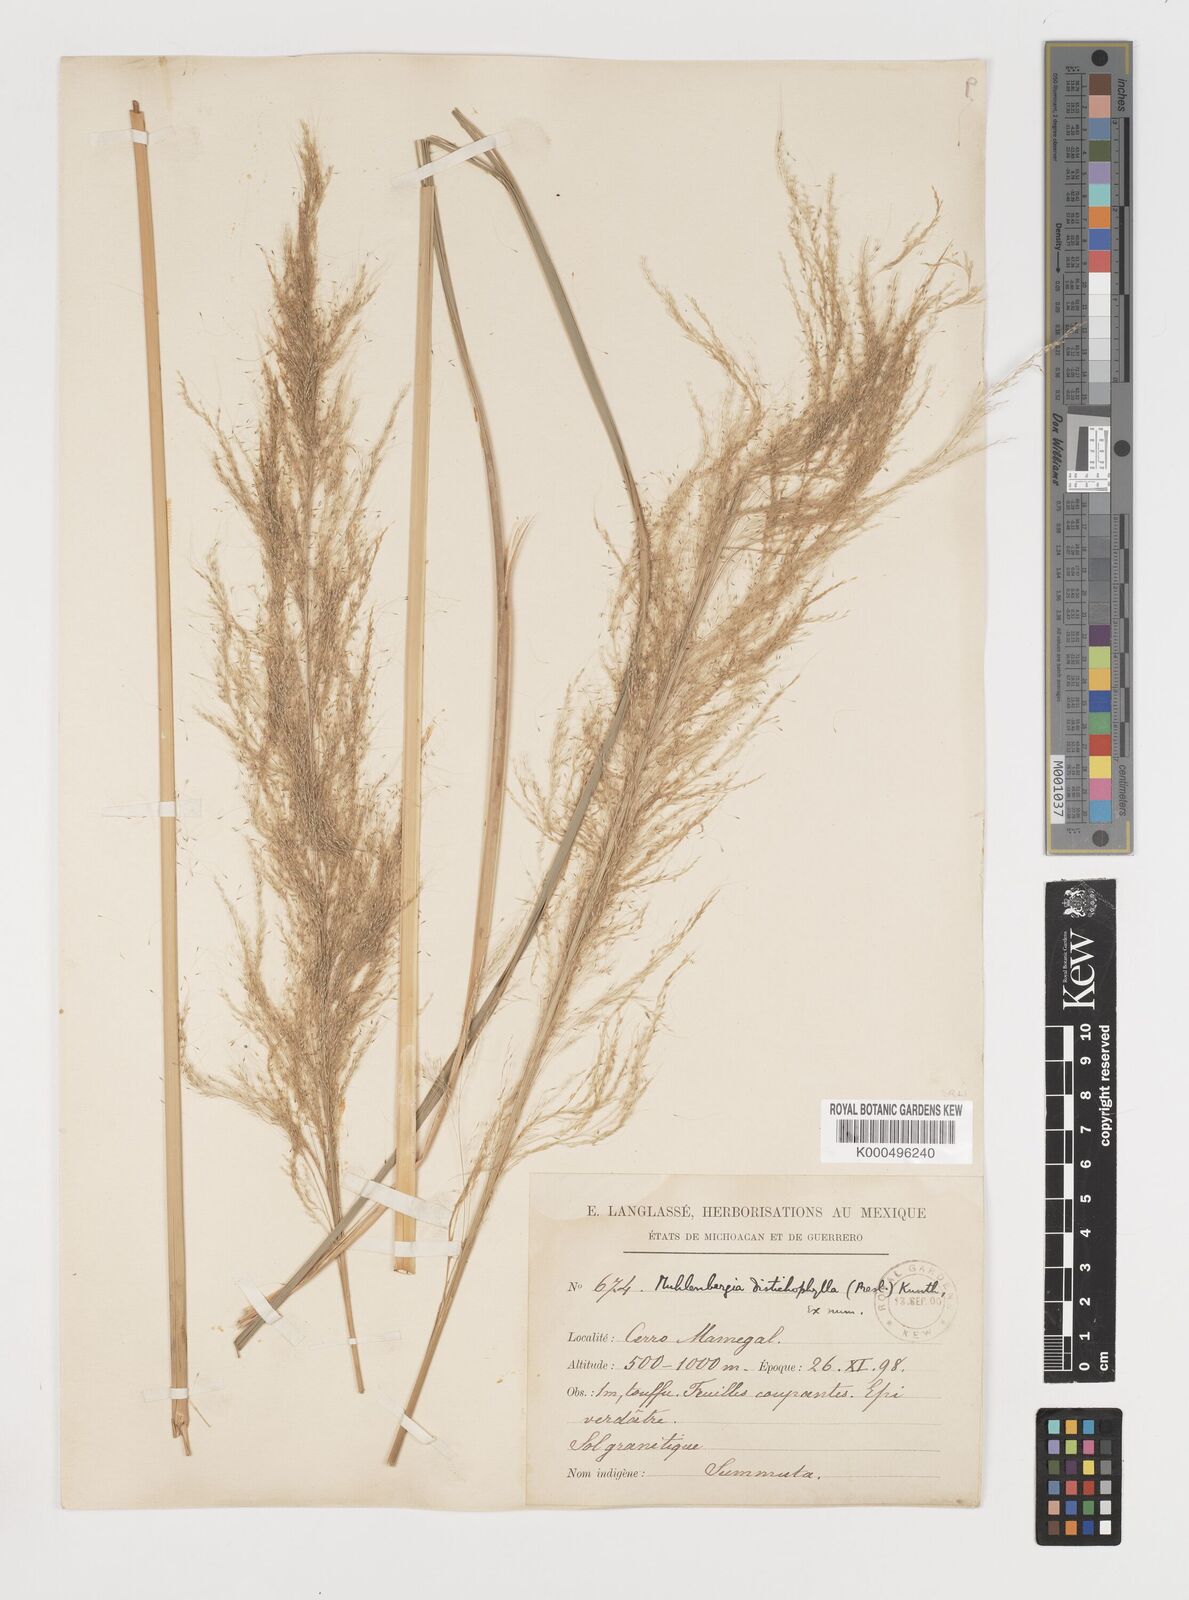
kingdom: Plantae
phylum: Tracheophyta
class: Liliopsida
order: Poales
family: Poaceae
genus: Muhlenbergia
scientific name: Muhlenbergia
